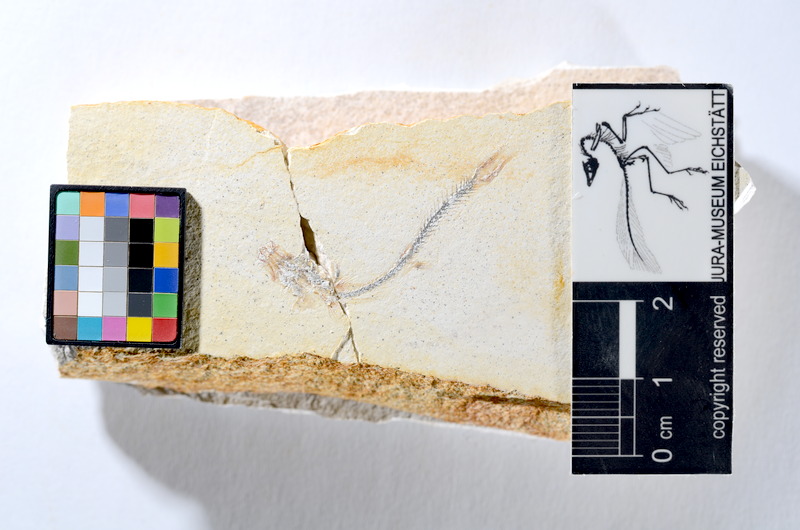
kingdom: Animalia
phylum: Chordata
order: Salmoniformes
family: Orthogonikleithridae
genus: Orthogonikleithrus
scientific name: Orthogonikleithrus hoelli
